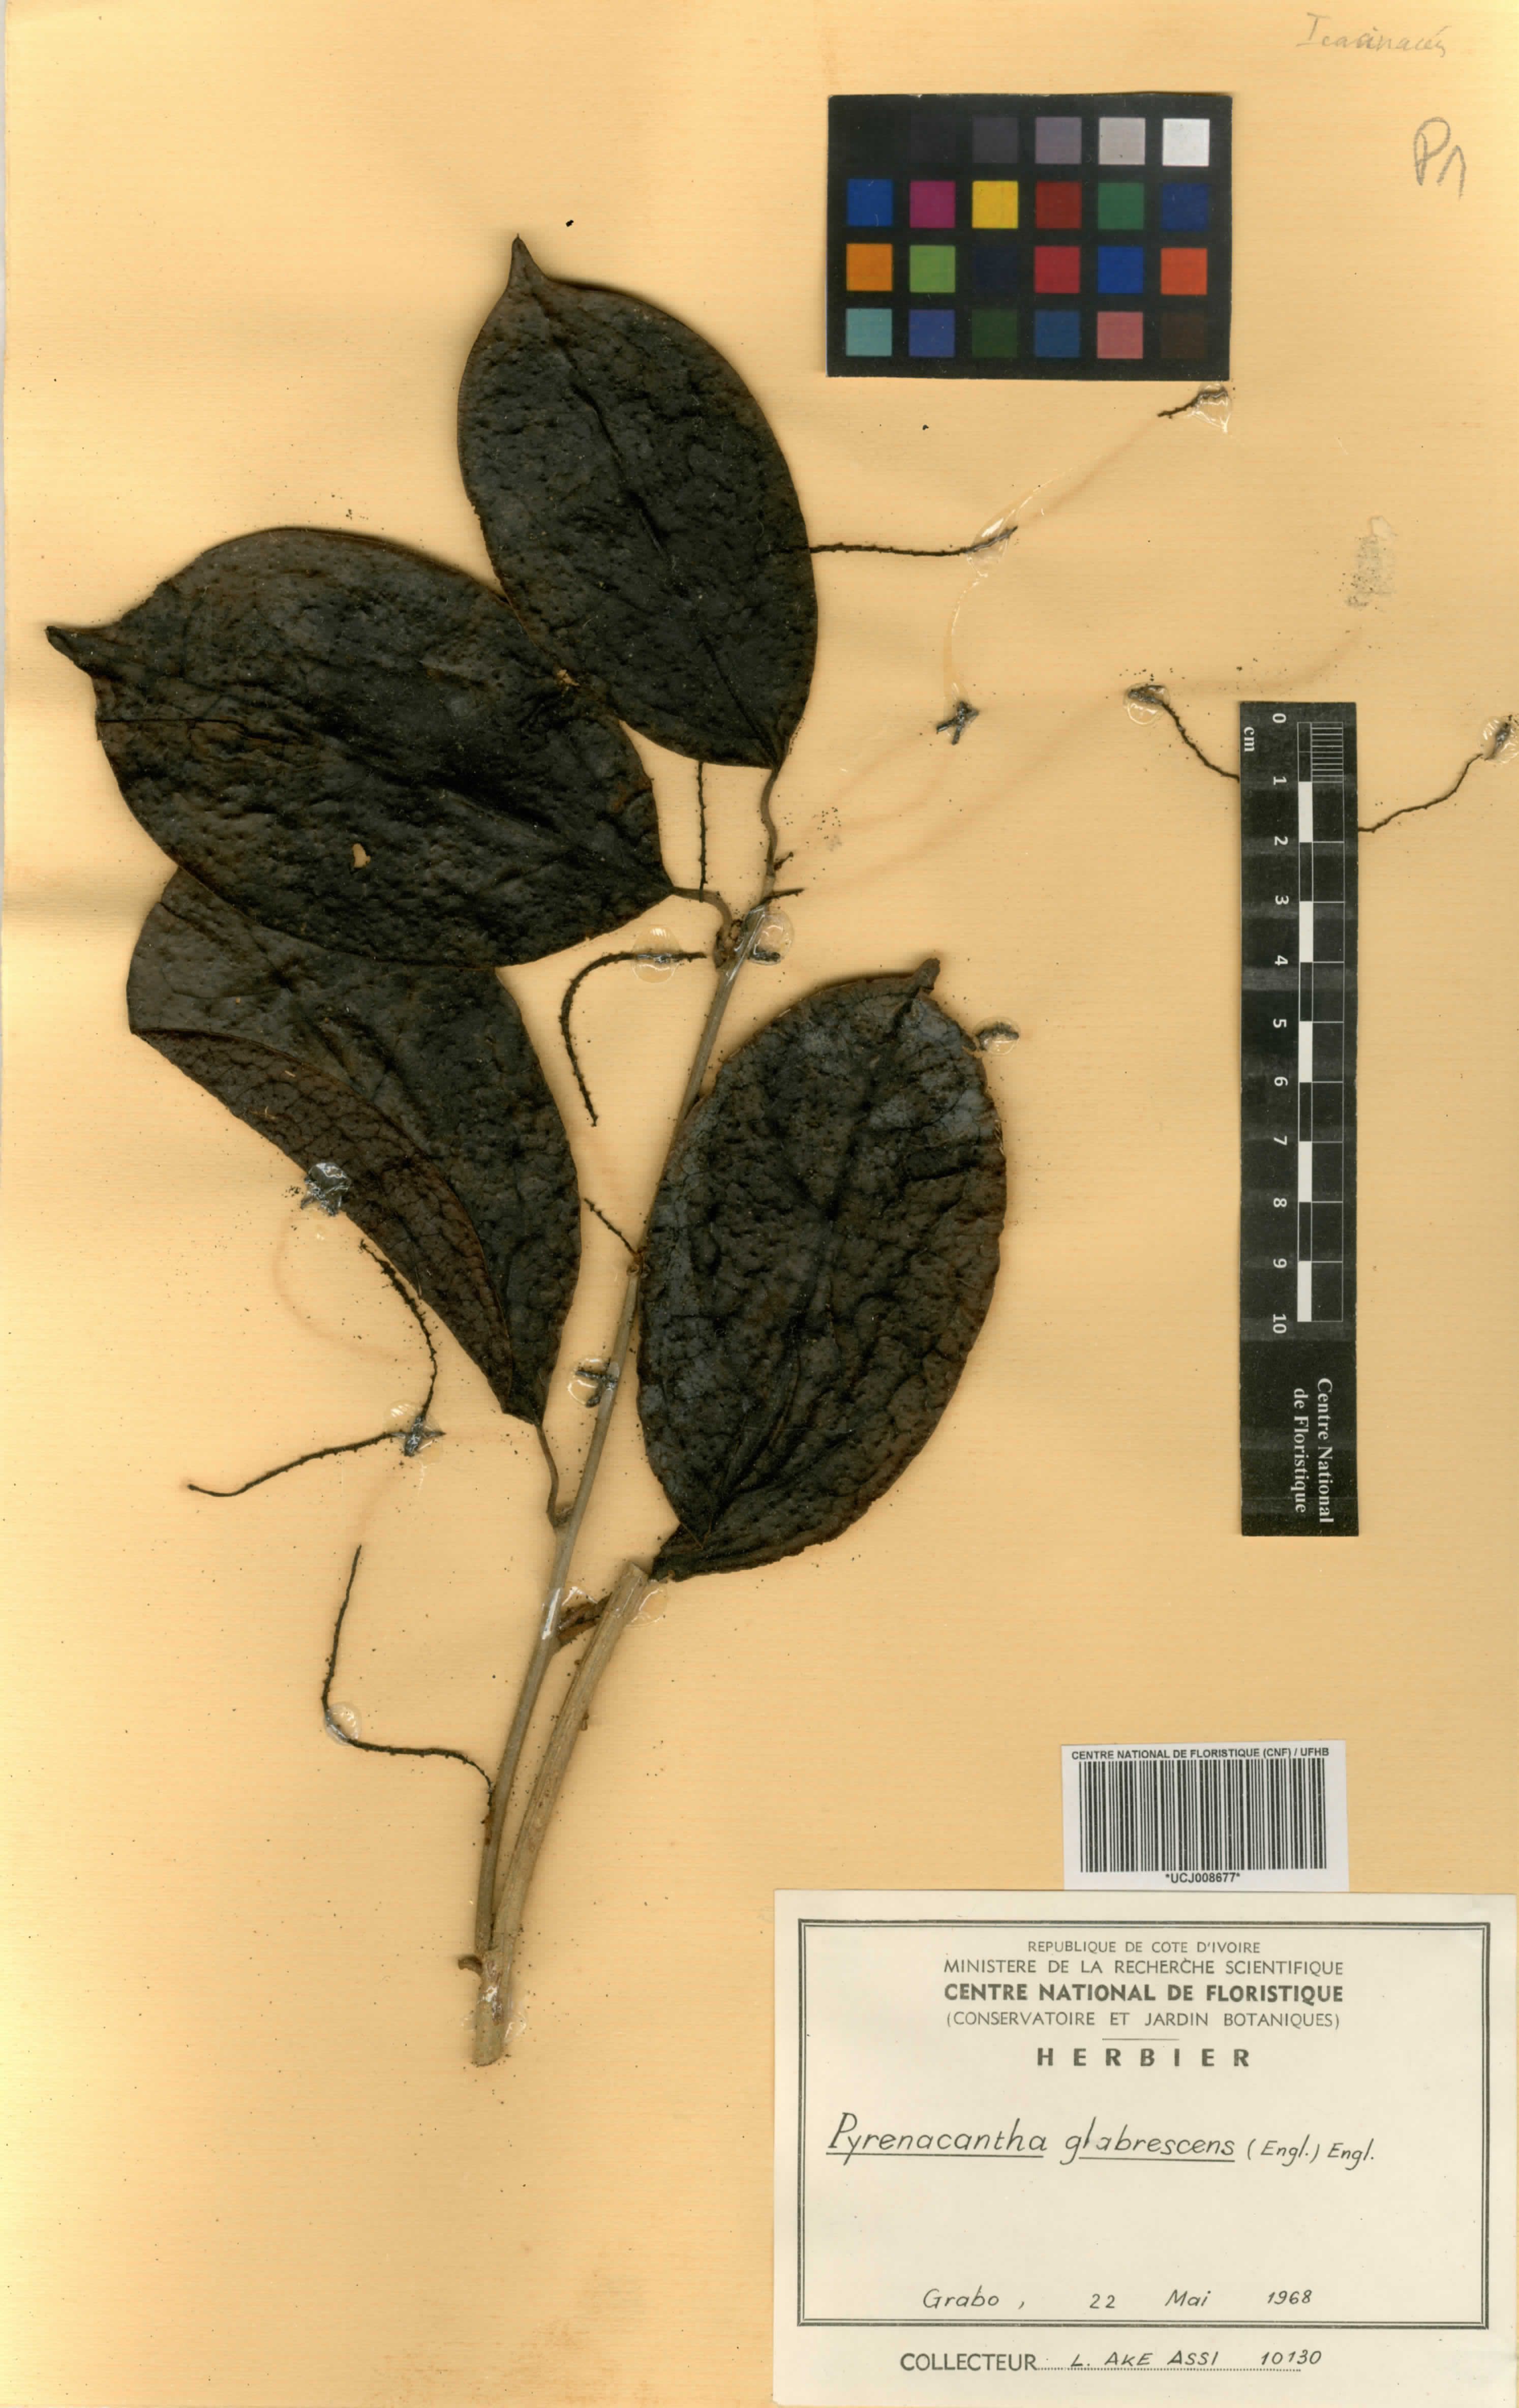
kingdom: Plantae
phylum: Tracheophyta
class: Magnoliopsida
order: Icacinales
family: Icacinaceae
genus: Pyrenacantha
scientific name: Pyrenacantha glabrescens
